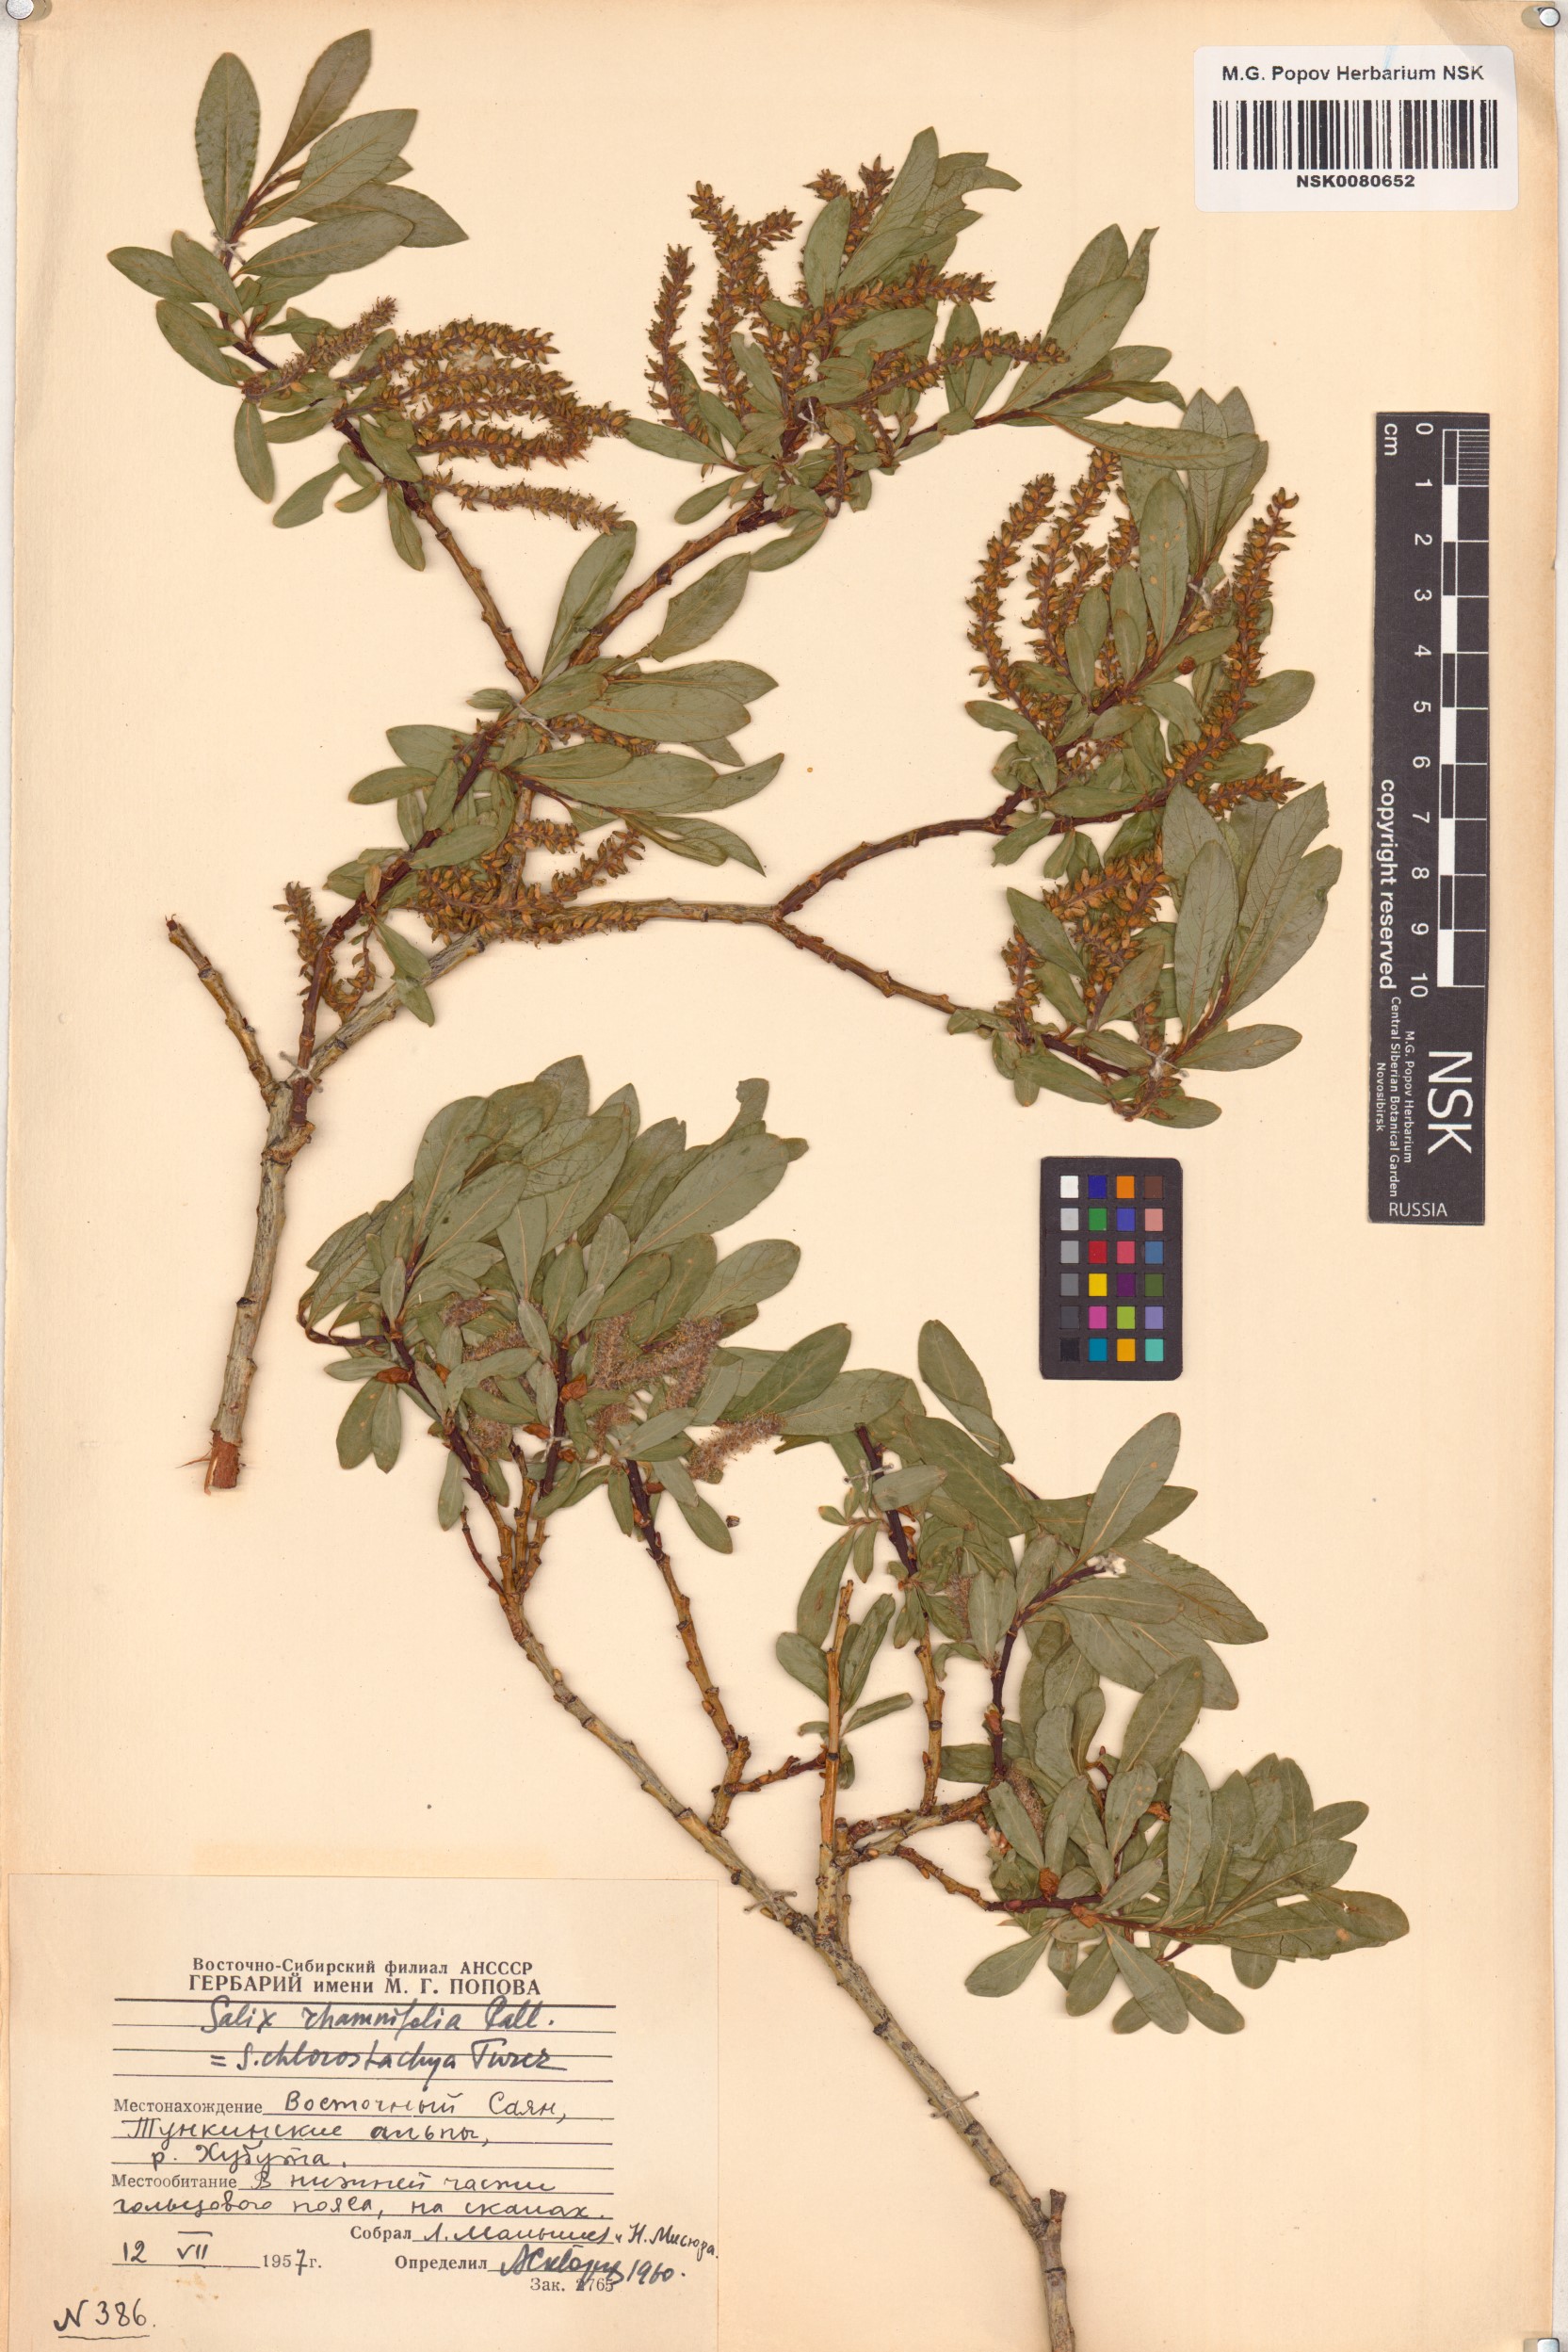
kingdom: Plantae
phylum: Tracheophyta
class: Magnoliopsida
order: Malpighiales
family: Salicaceae
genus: Salix
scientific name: Salix rhamnifolia
